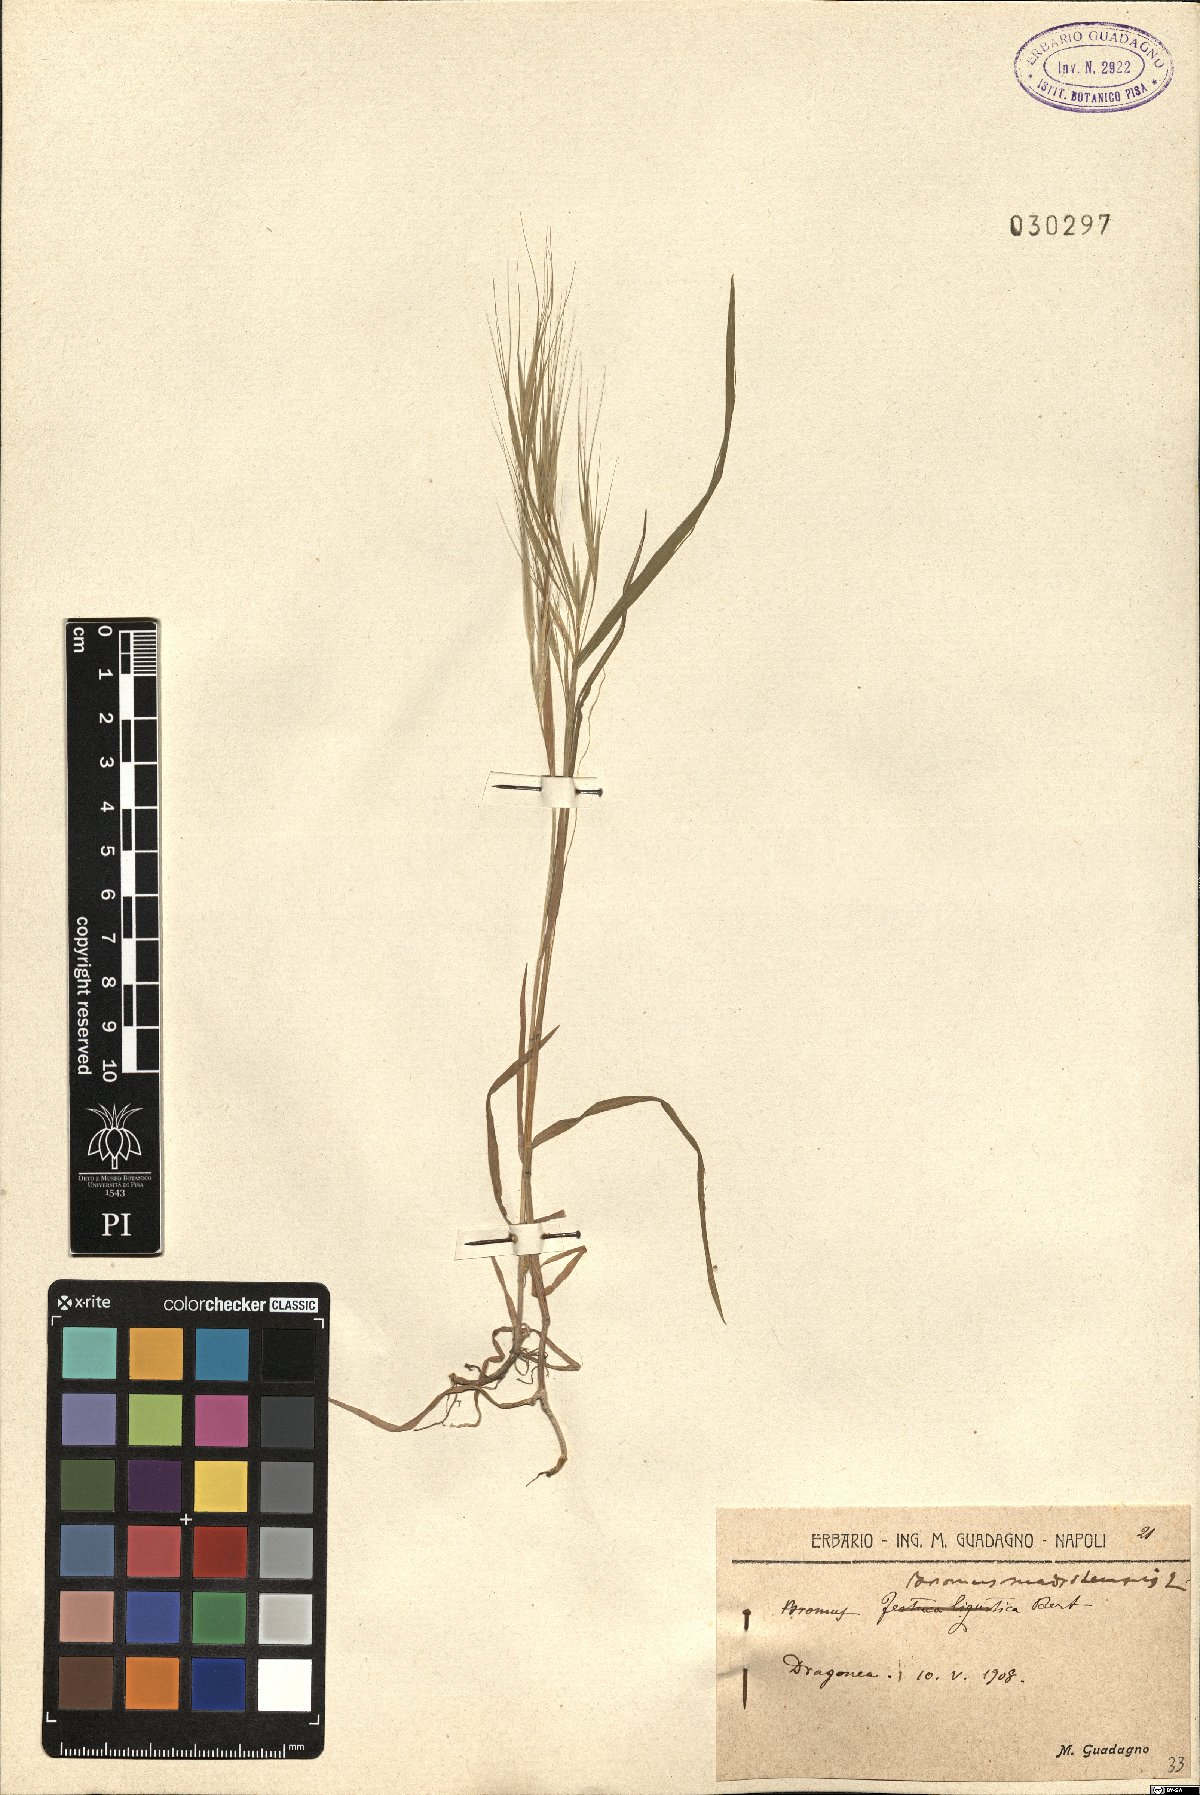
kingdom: Plantae
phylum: Tracheophyta
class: Liliopsida
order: Poales
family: Poaceae
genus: Bromus
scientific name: Bromus madritensis
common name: Compact brome
